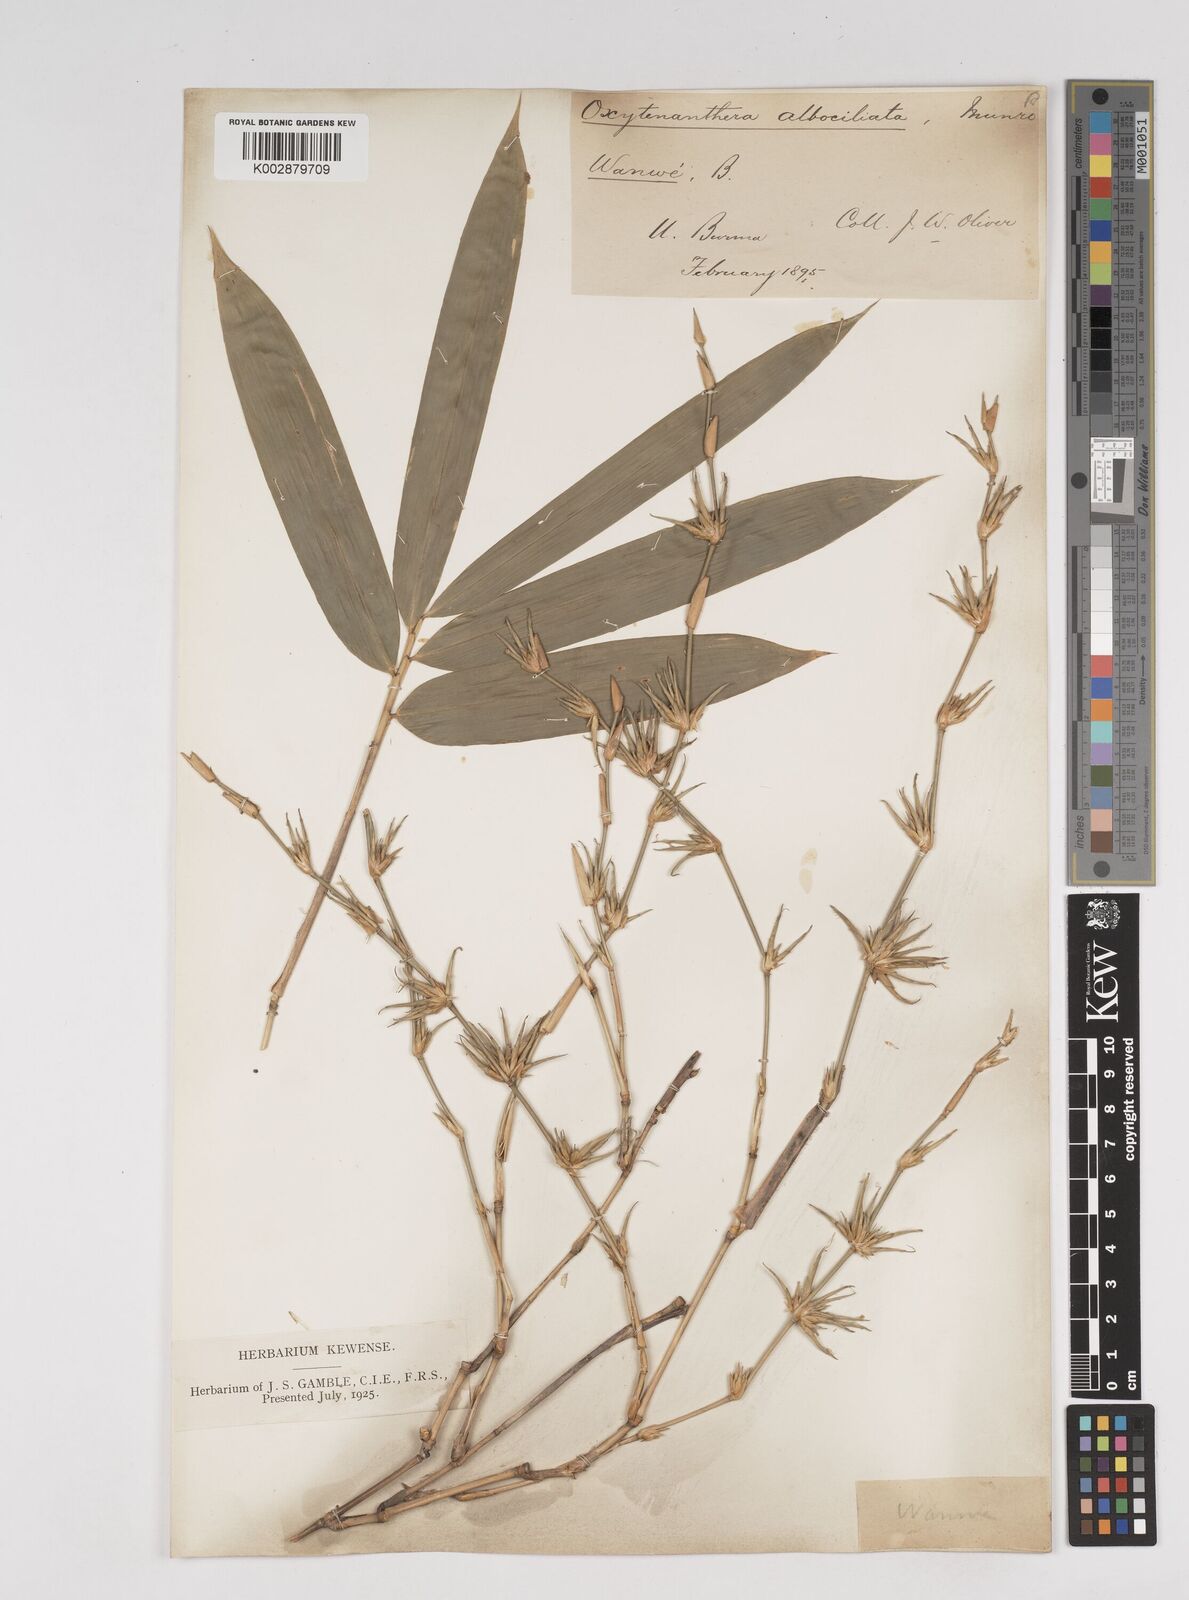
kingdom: Plantae
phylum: Tracheophyta
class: Liliopsida
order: Poales
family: Poaceae
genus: Gigantochloa
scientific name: Gigantochloa albociliata
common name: White-fringe gigantochloa
